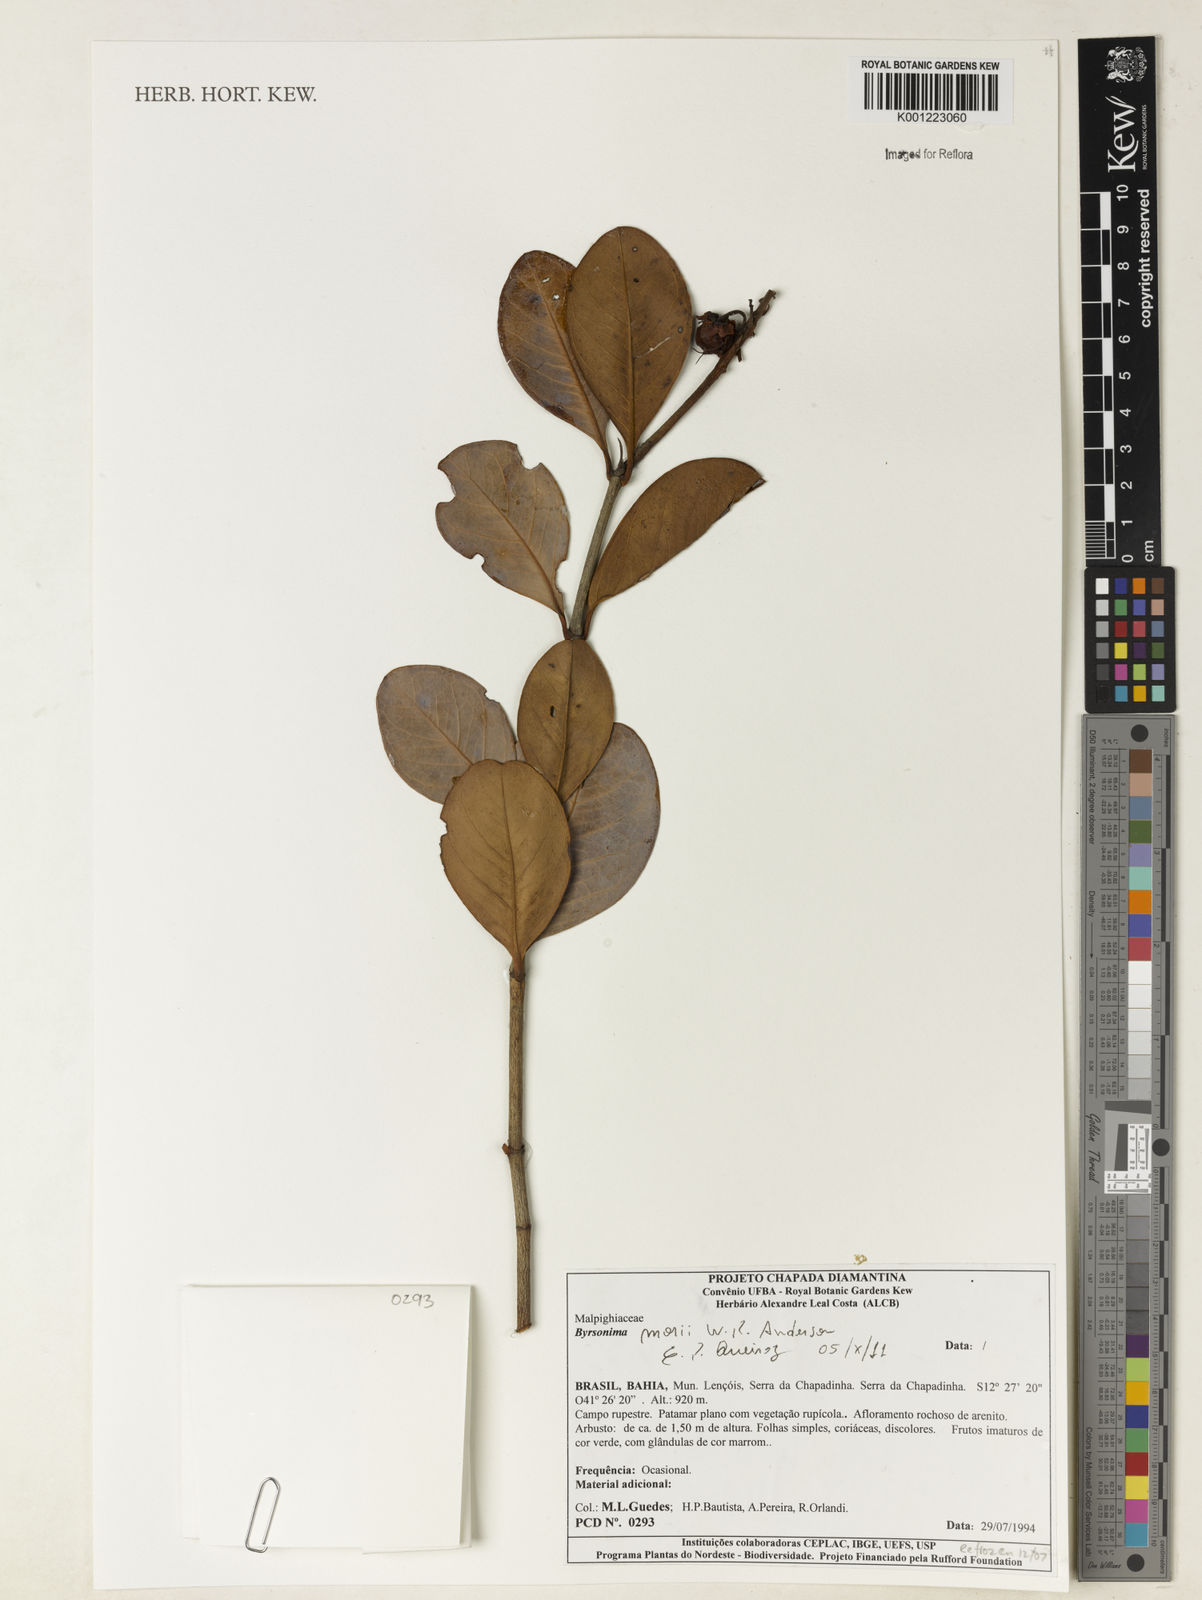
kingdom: Plantae
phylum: Tracheophyta
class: Magnoliopsida
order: Malpighiales
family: Malpighiaceae
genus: Byrsonima
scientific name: Byrsonima morii
